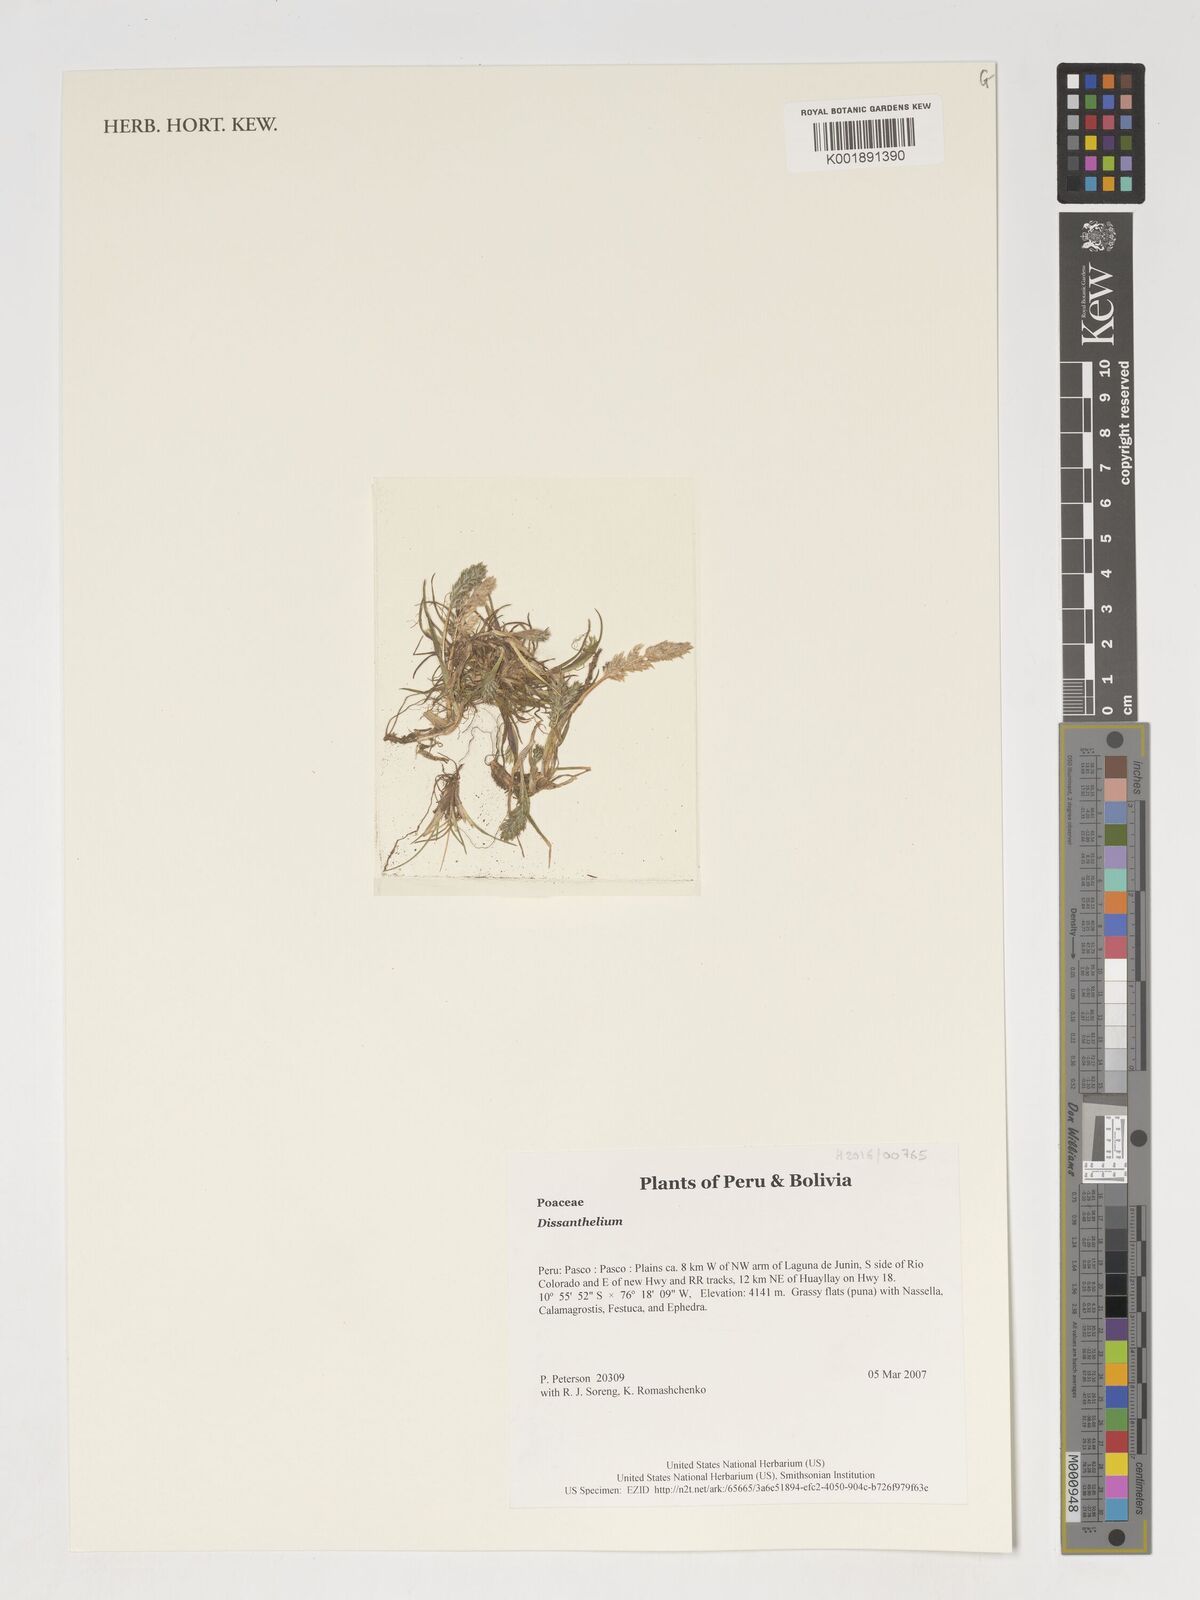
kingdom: Plantae
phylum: Tracheophyta
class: Liliopsida
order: Poales
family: Poaceae
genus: Poa
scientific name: Poa
